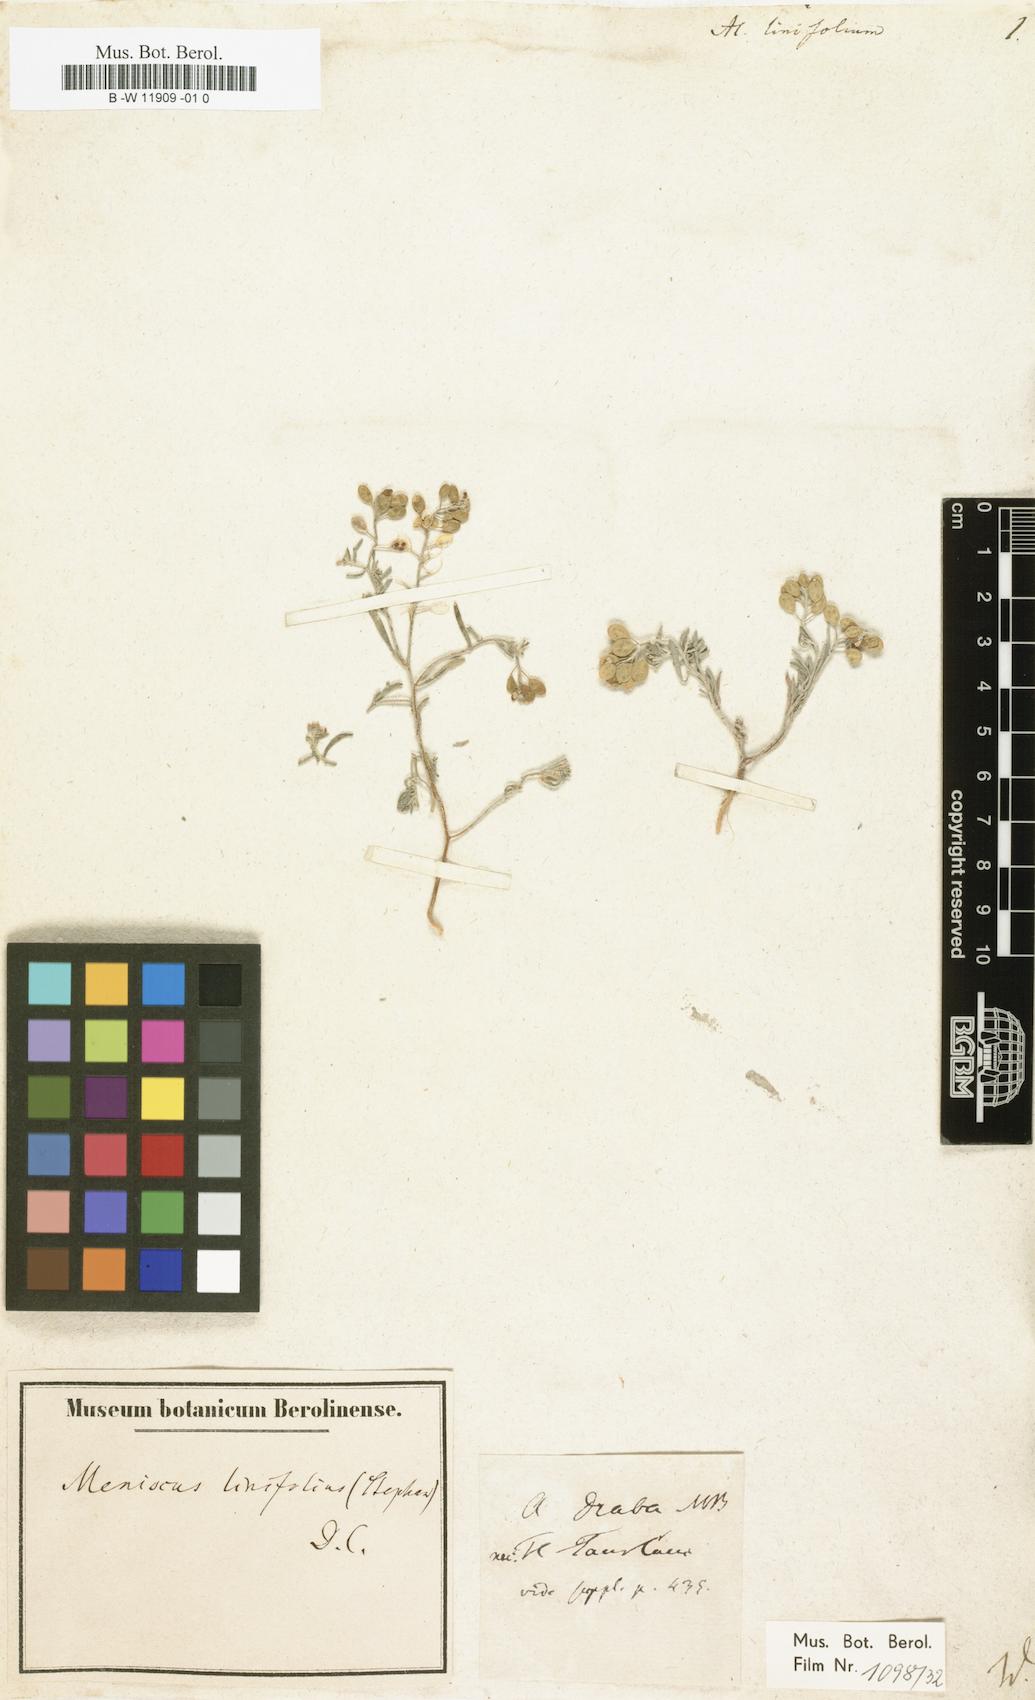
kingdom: Plantae
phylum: Tracheophyta
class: Magnoliopsida
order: Brassicales
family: Brassicaceae
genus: Meniocus
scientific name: Meniocus linifolius
